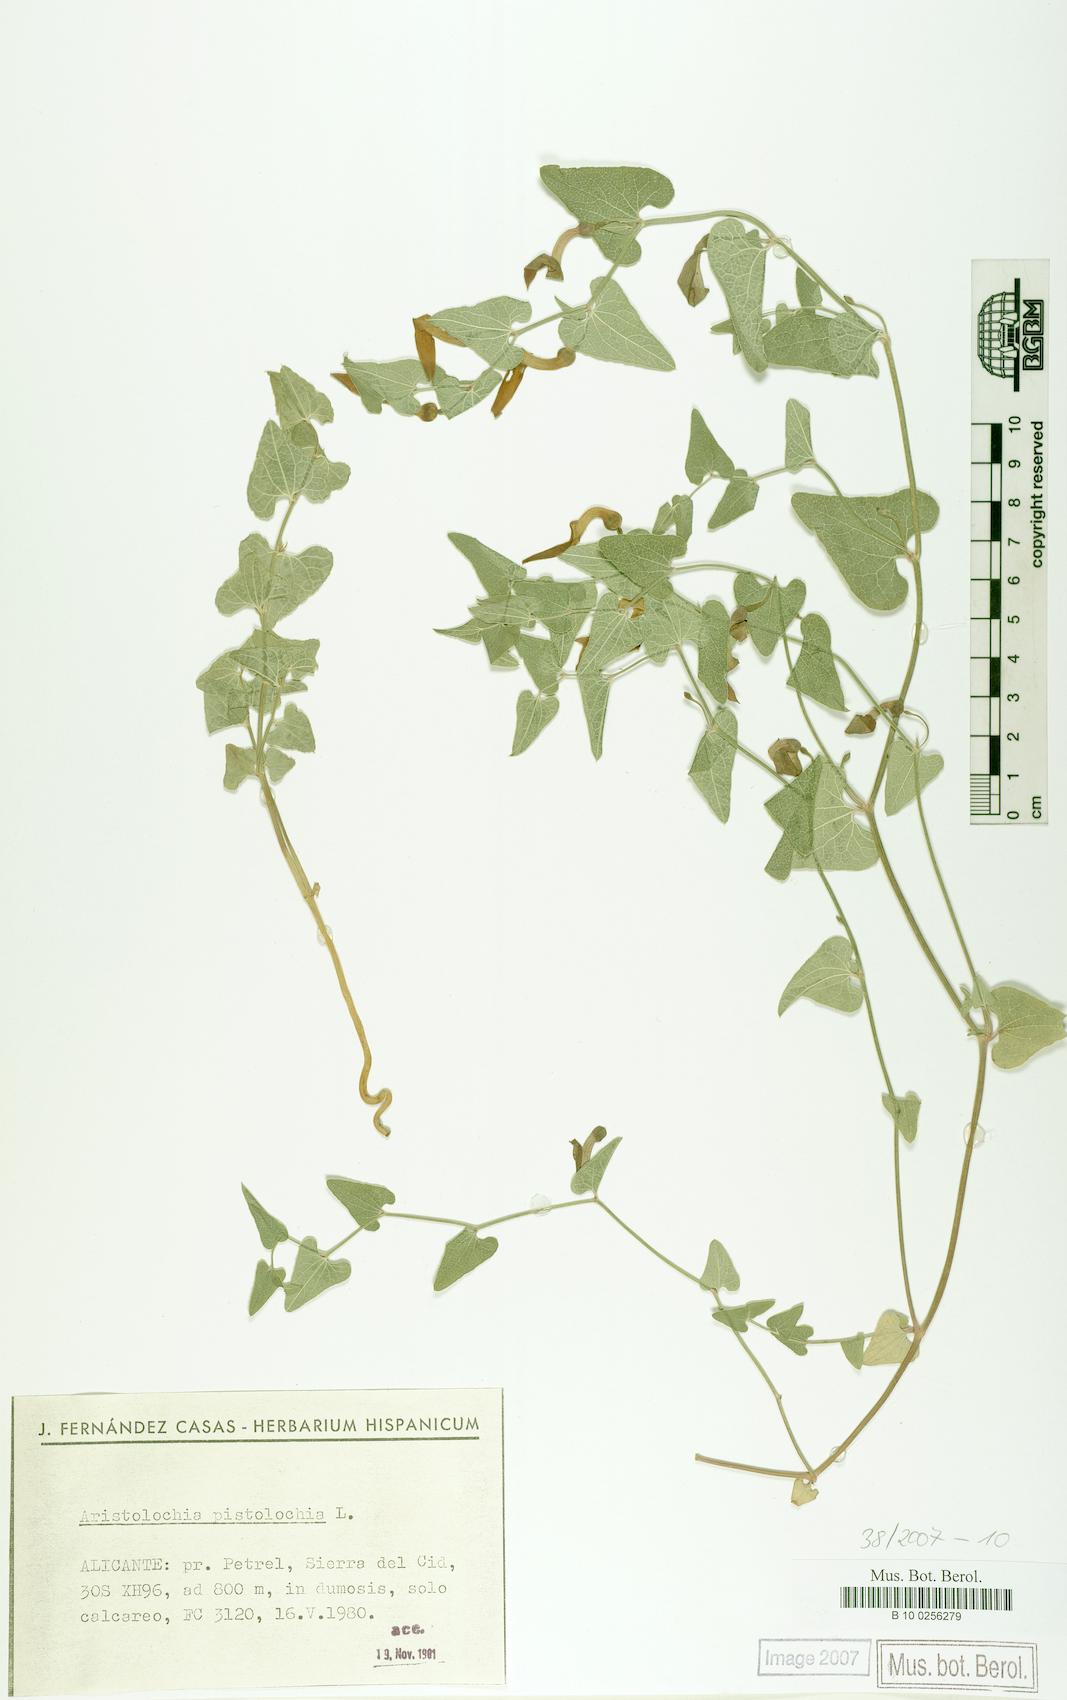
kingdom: Plantae
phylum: Tracheophyta
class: Magnoliopsida
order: Piperales
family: Aristolochiaceae
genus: Aristolochia
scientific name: Aristolochia pistolochia
